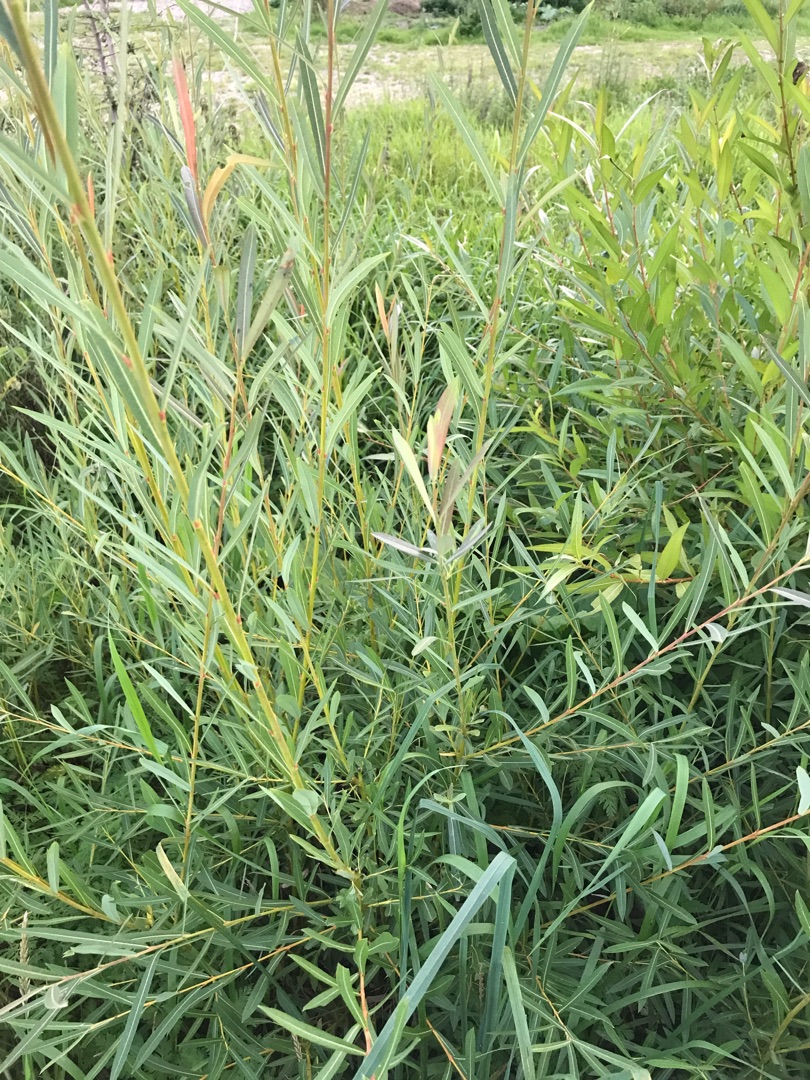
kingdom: Plantae
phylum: Tracheophyta
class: Magnoliopsida
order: Malpighiales
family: Salicaceae
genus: Salix
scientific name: Salix purpurea
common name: Purpur-pil
